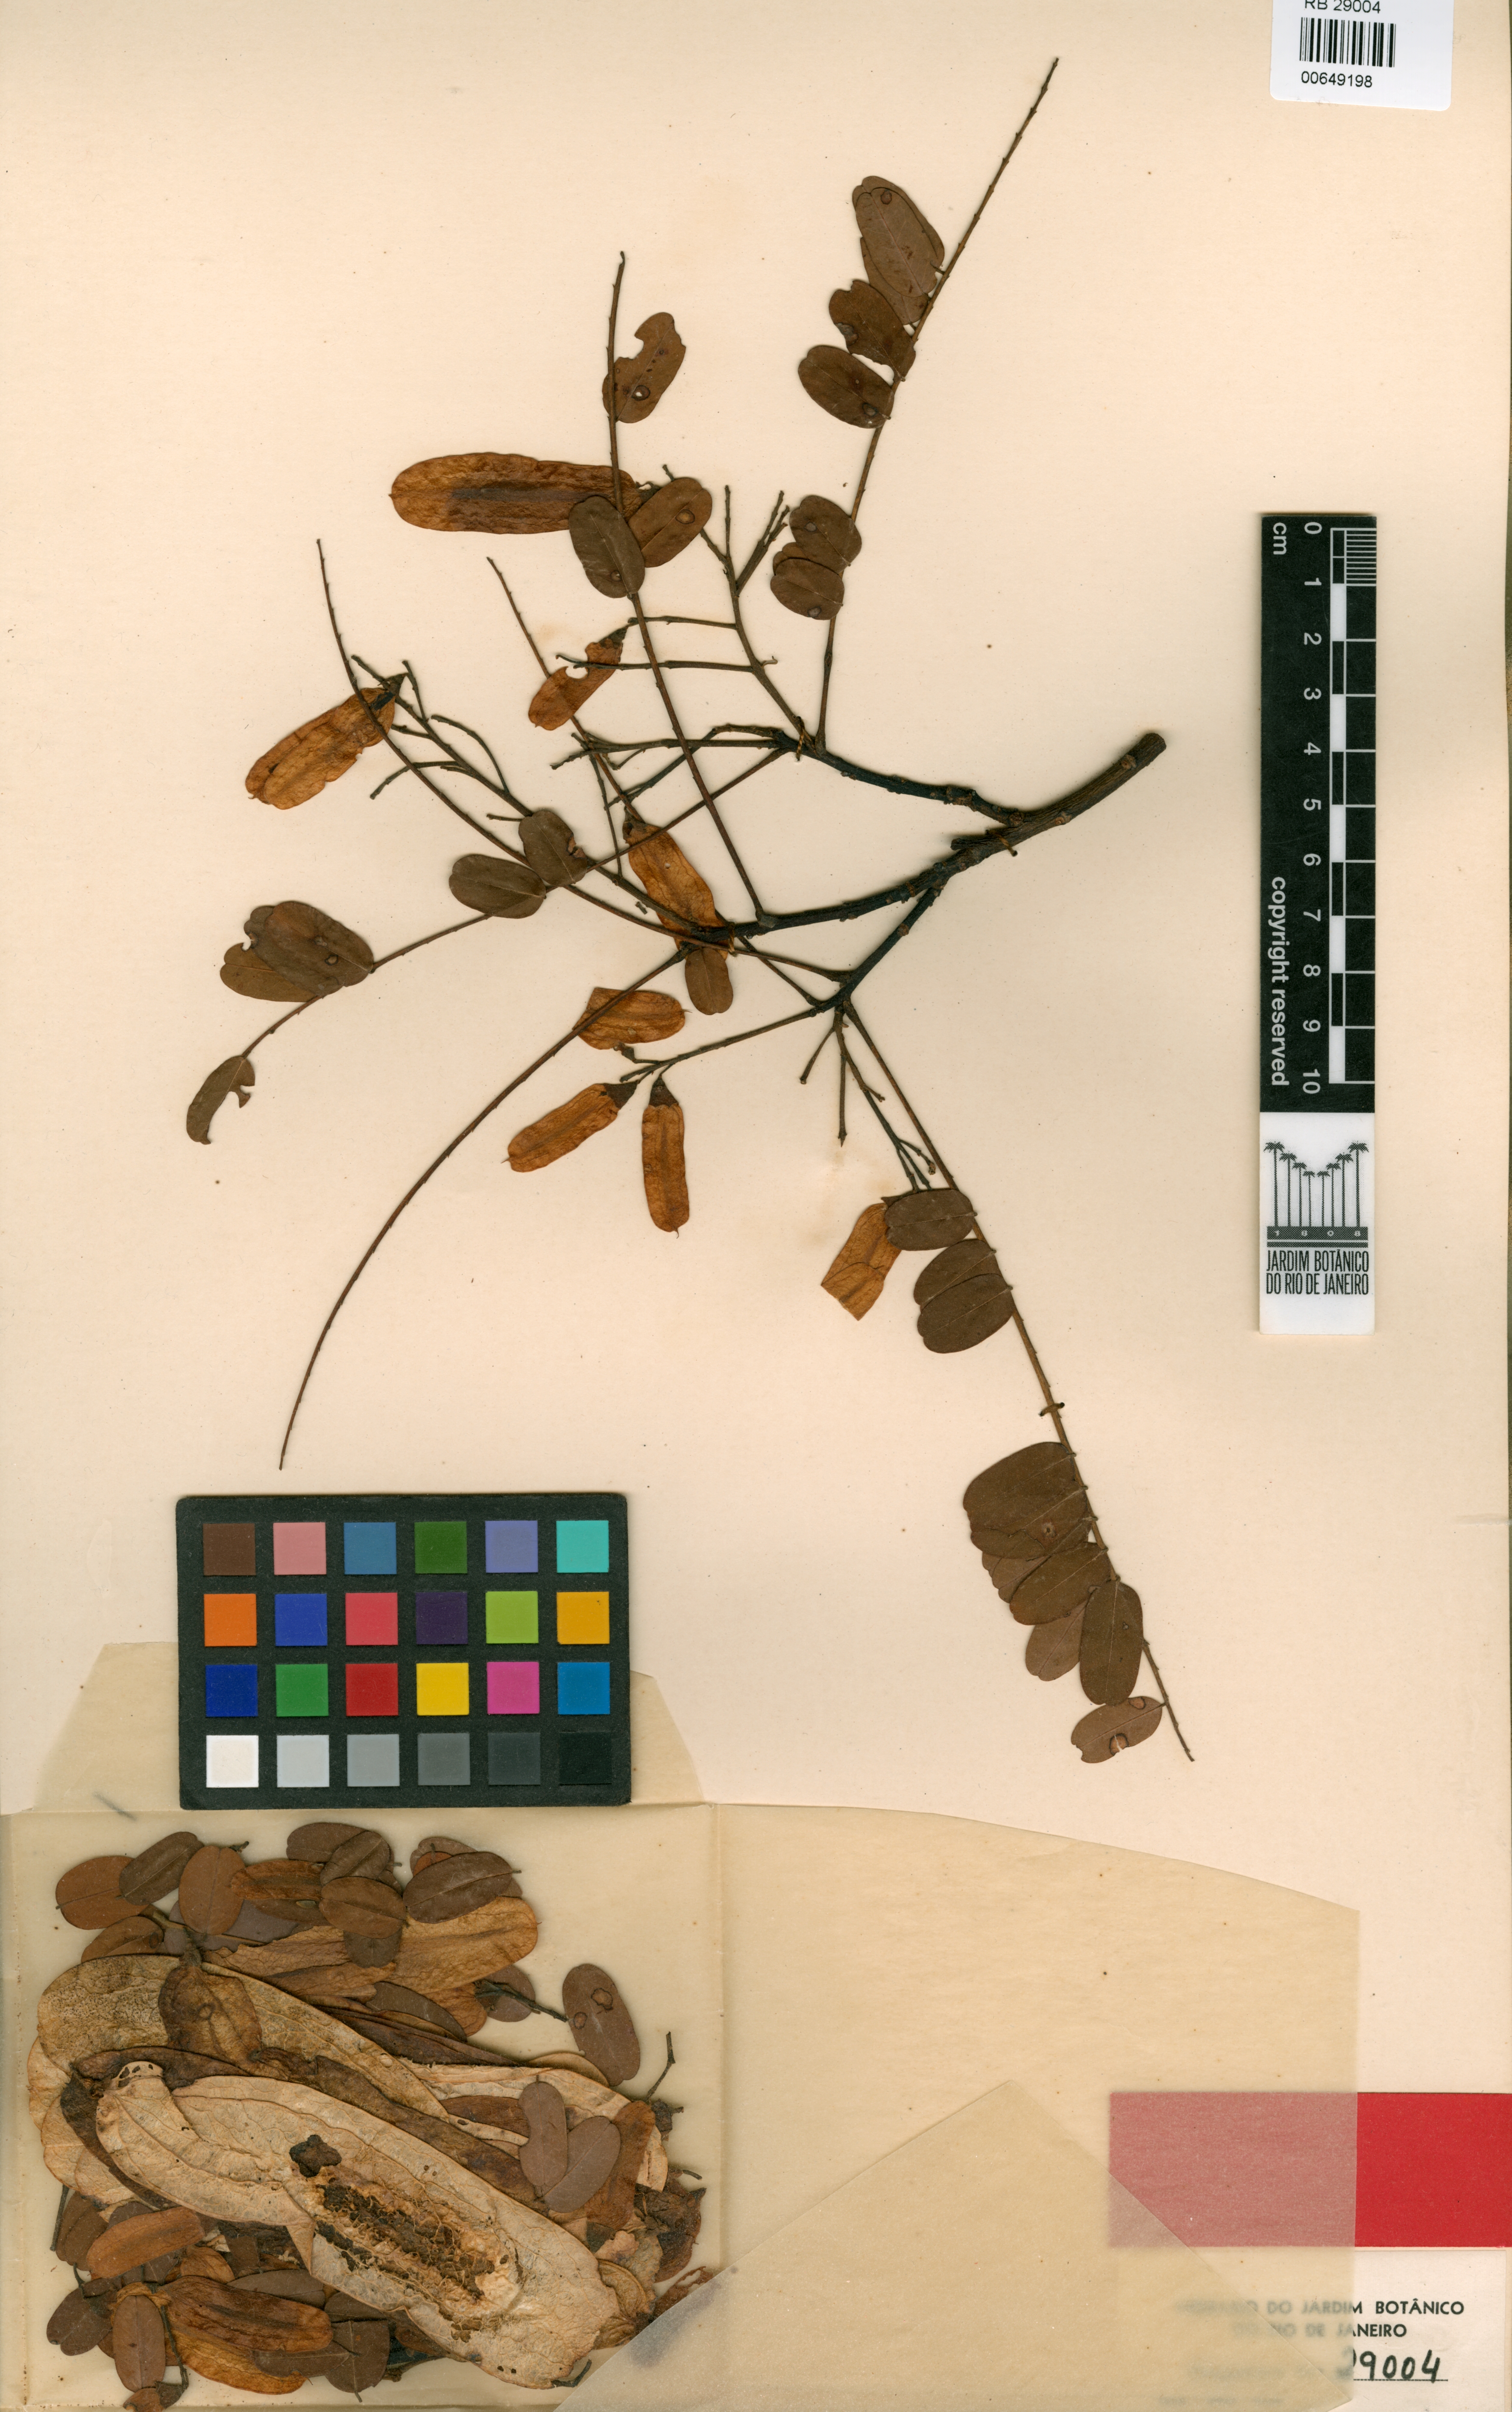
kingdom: Plantae
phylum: Tracheophyta
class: Magnoliopsida
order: Fabales
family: Fabaceae
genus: Hymenolobium
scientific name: Hymenolobium sericeum
